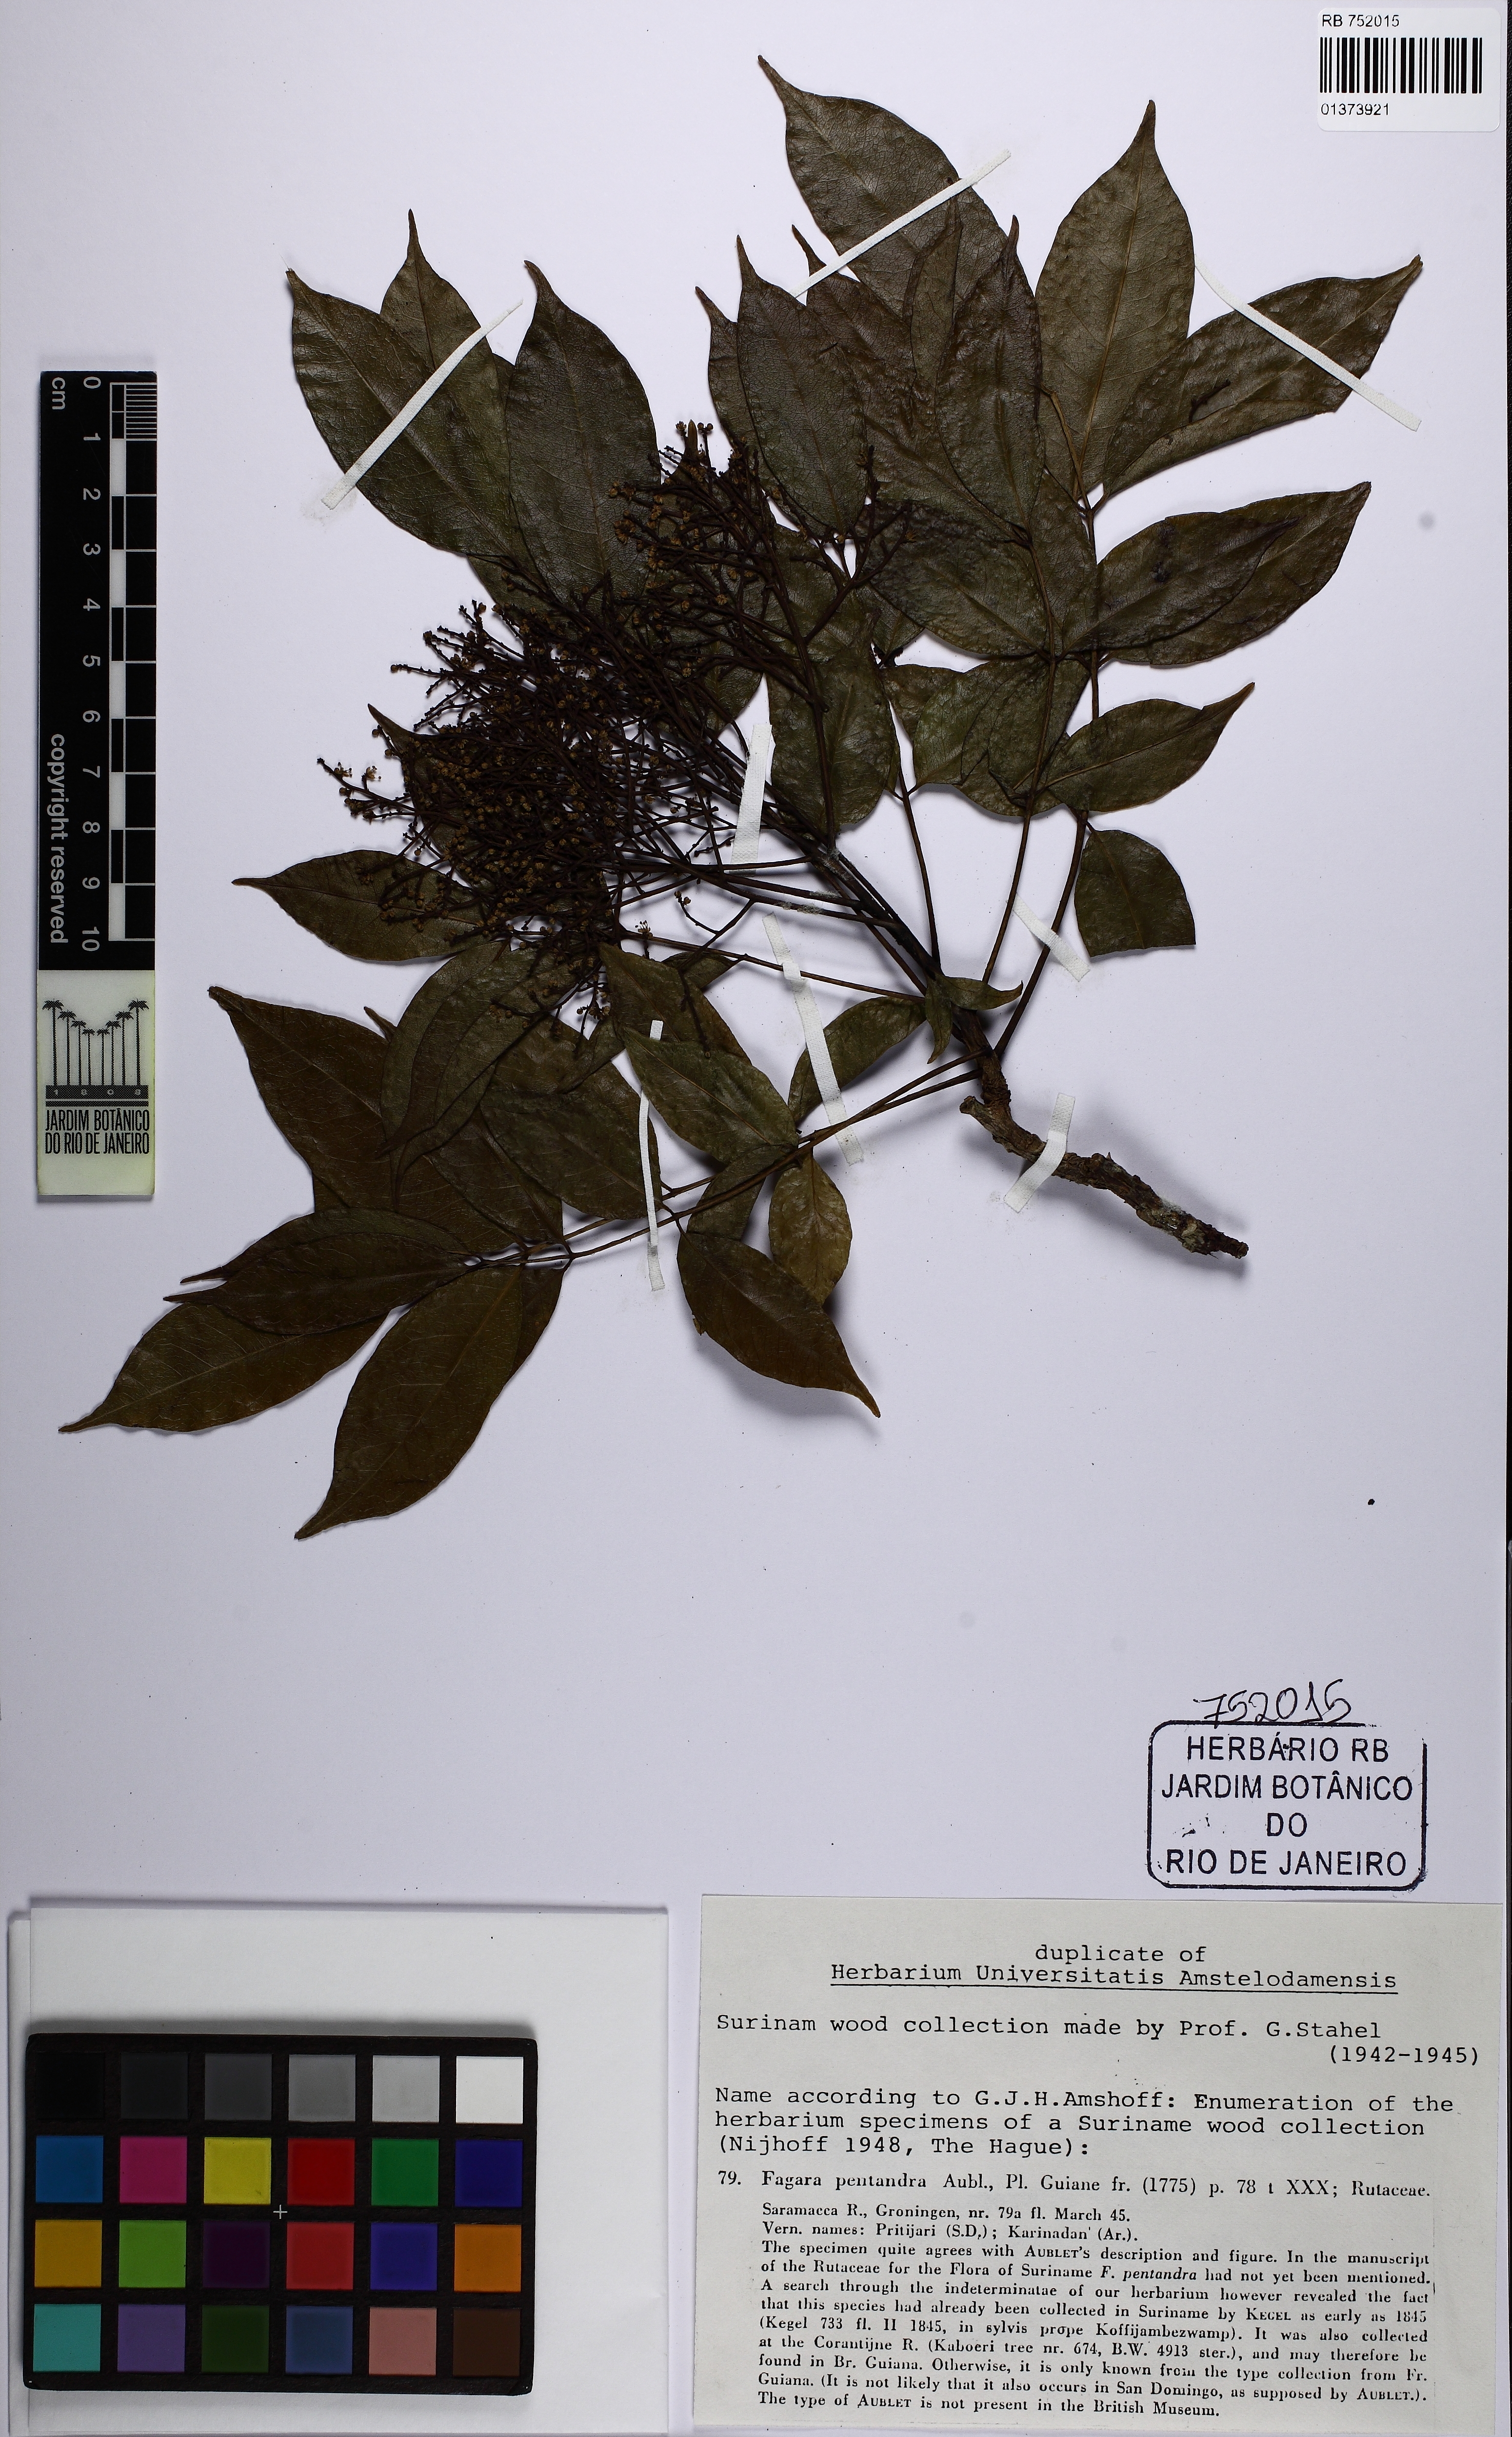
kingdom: Plantae
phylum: Tracheophyta
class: Magnoliopsida
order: Sapindales
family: Rutaceae
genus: Zanthoxylum
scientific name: Zanthoxylum pentandrum
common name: Fivestamen pricklyash
